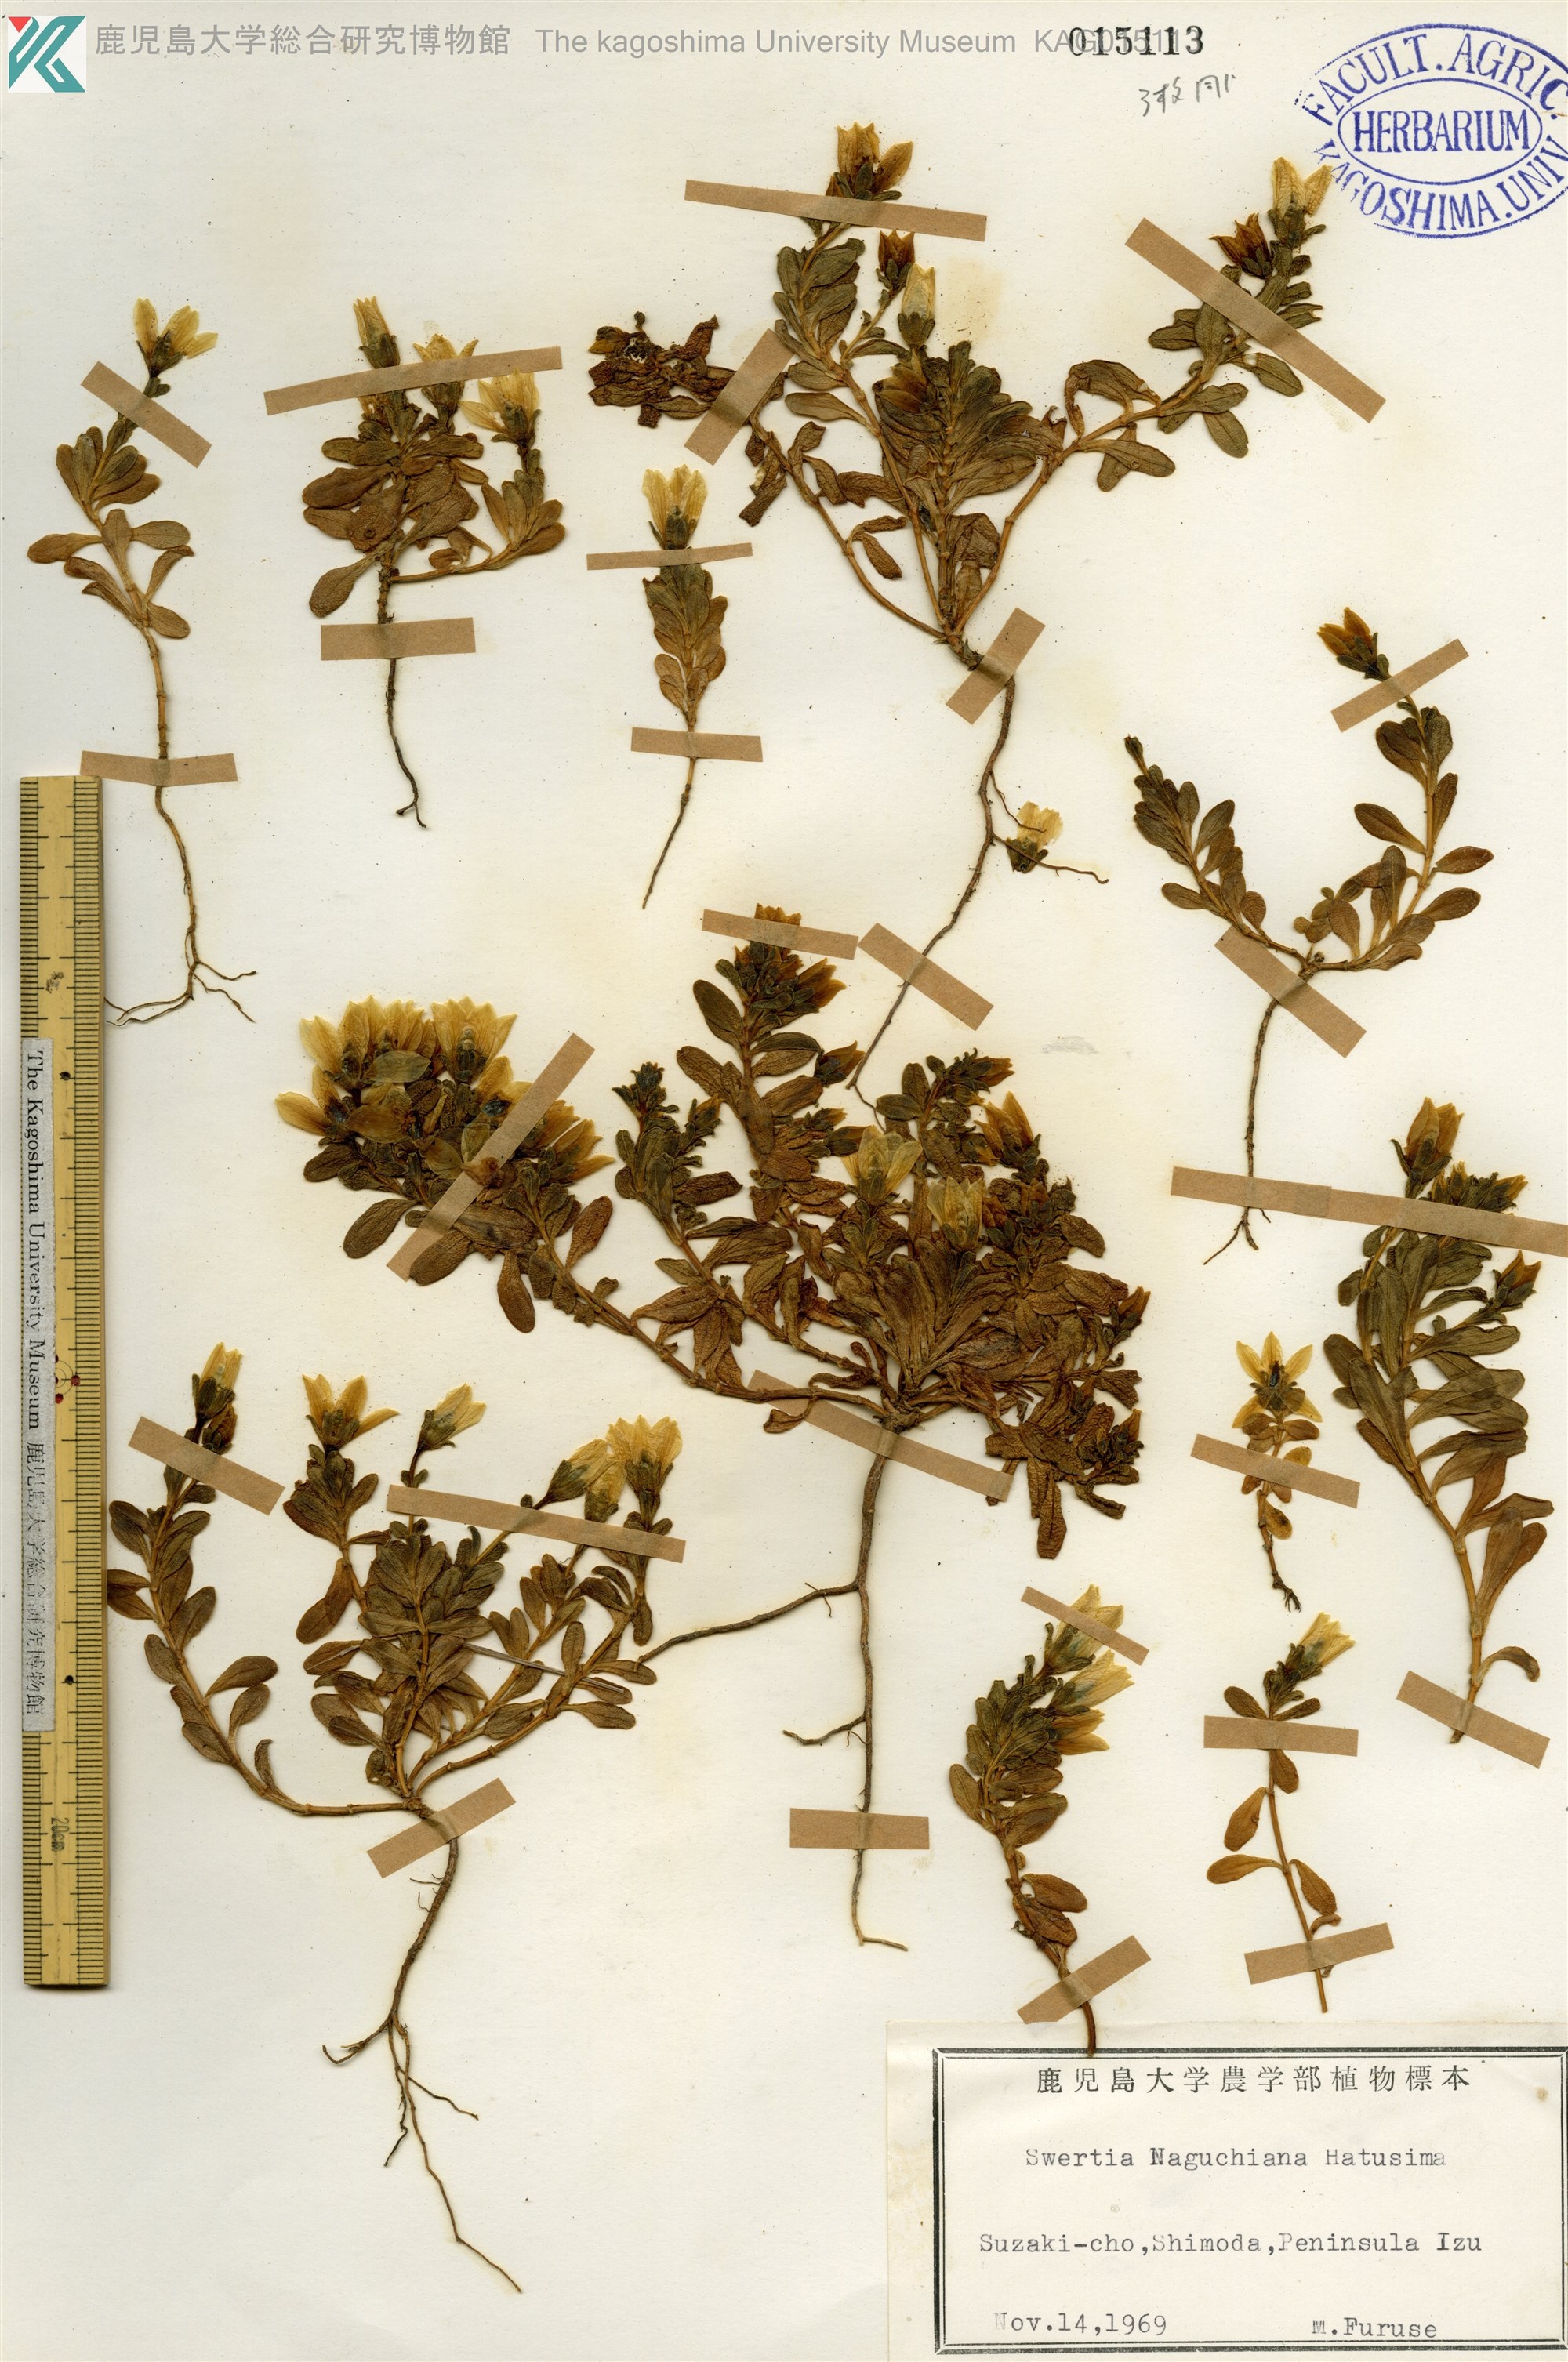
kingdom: Plantae
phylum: Tracheophyta
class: Magnoliopsida
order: Gentianales
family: Gentianaceae
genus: Swertia
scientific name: Swertia noguchiana
